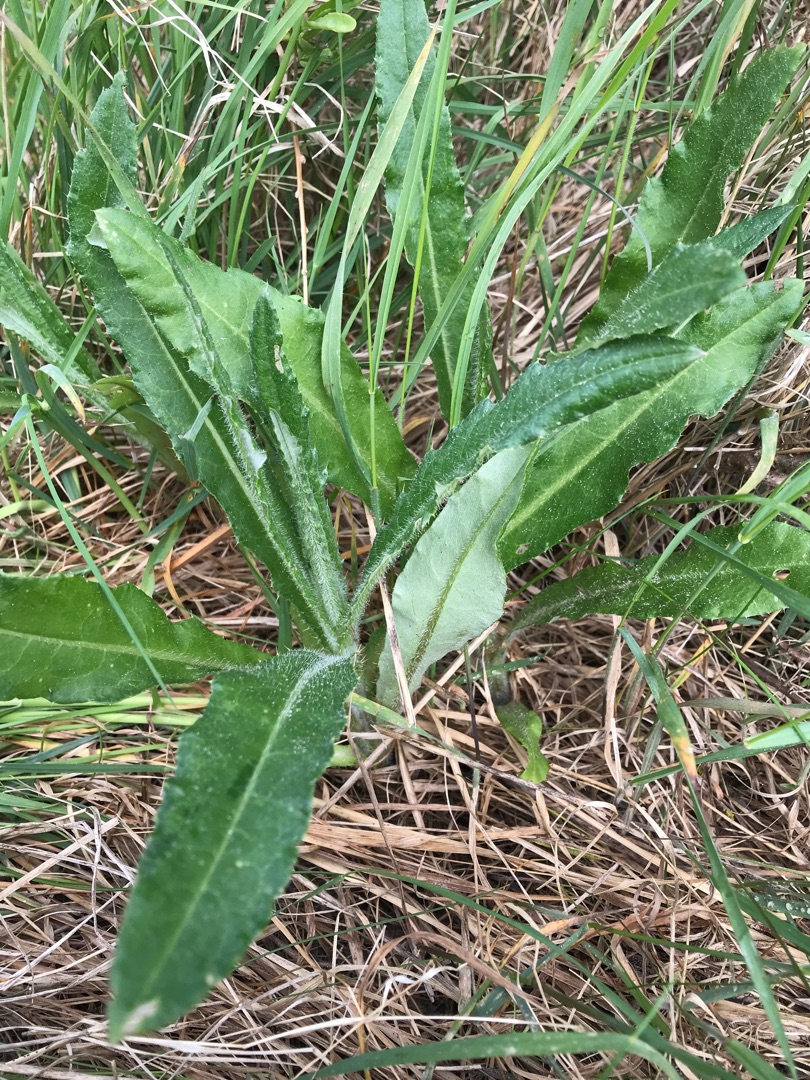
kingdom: Plantae
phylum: Tracheophyta
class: Magnoliopsida
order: Asterales
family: Asteraceae
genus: Cirsium
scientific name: Cirsium arvense
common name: Ager-tidsel
